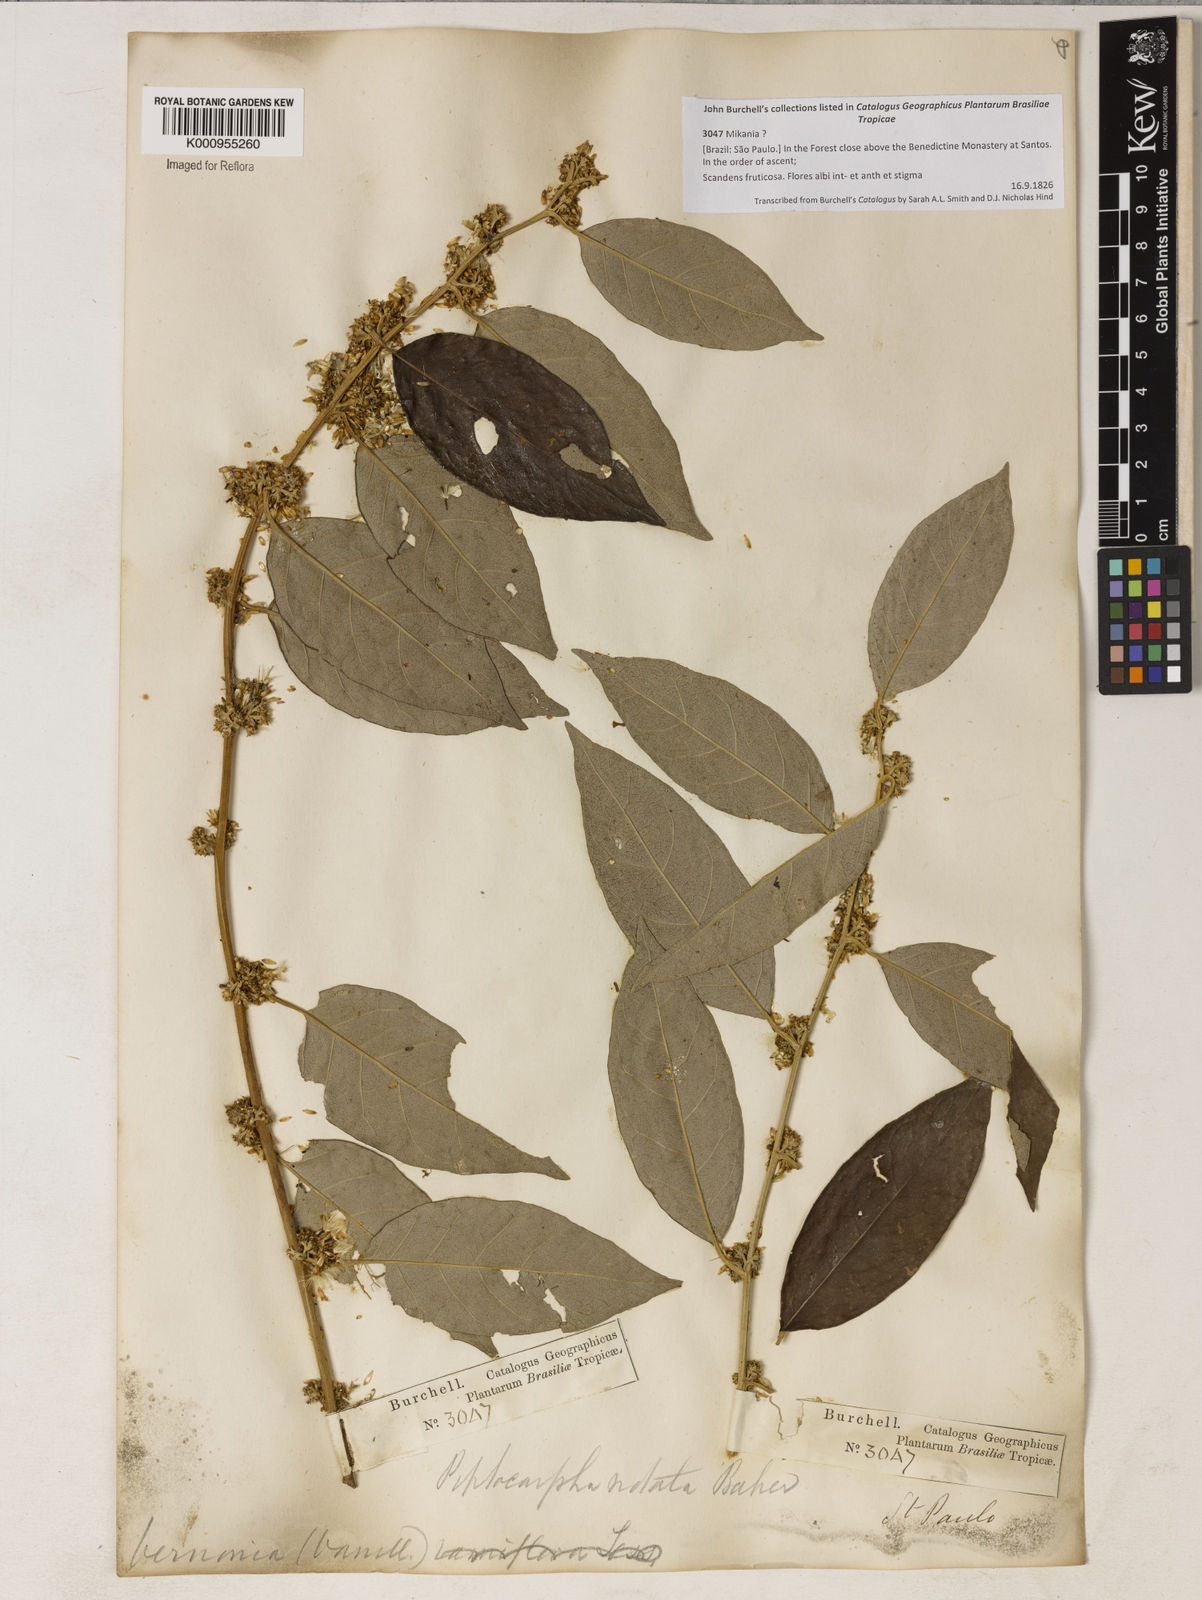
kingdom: Plantae
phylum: Tracheophyta
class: Magnoliopsida
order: Asterales
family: Asteraceae
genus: Piptocarpha
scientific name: Piptocarpha notata
